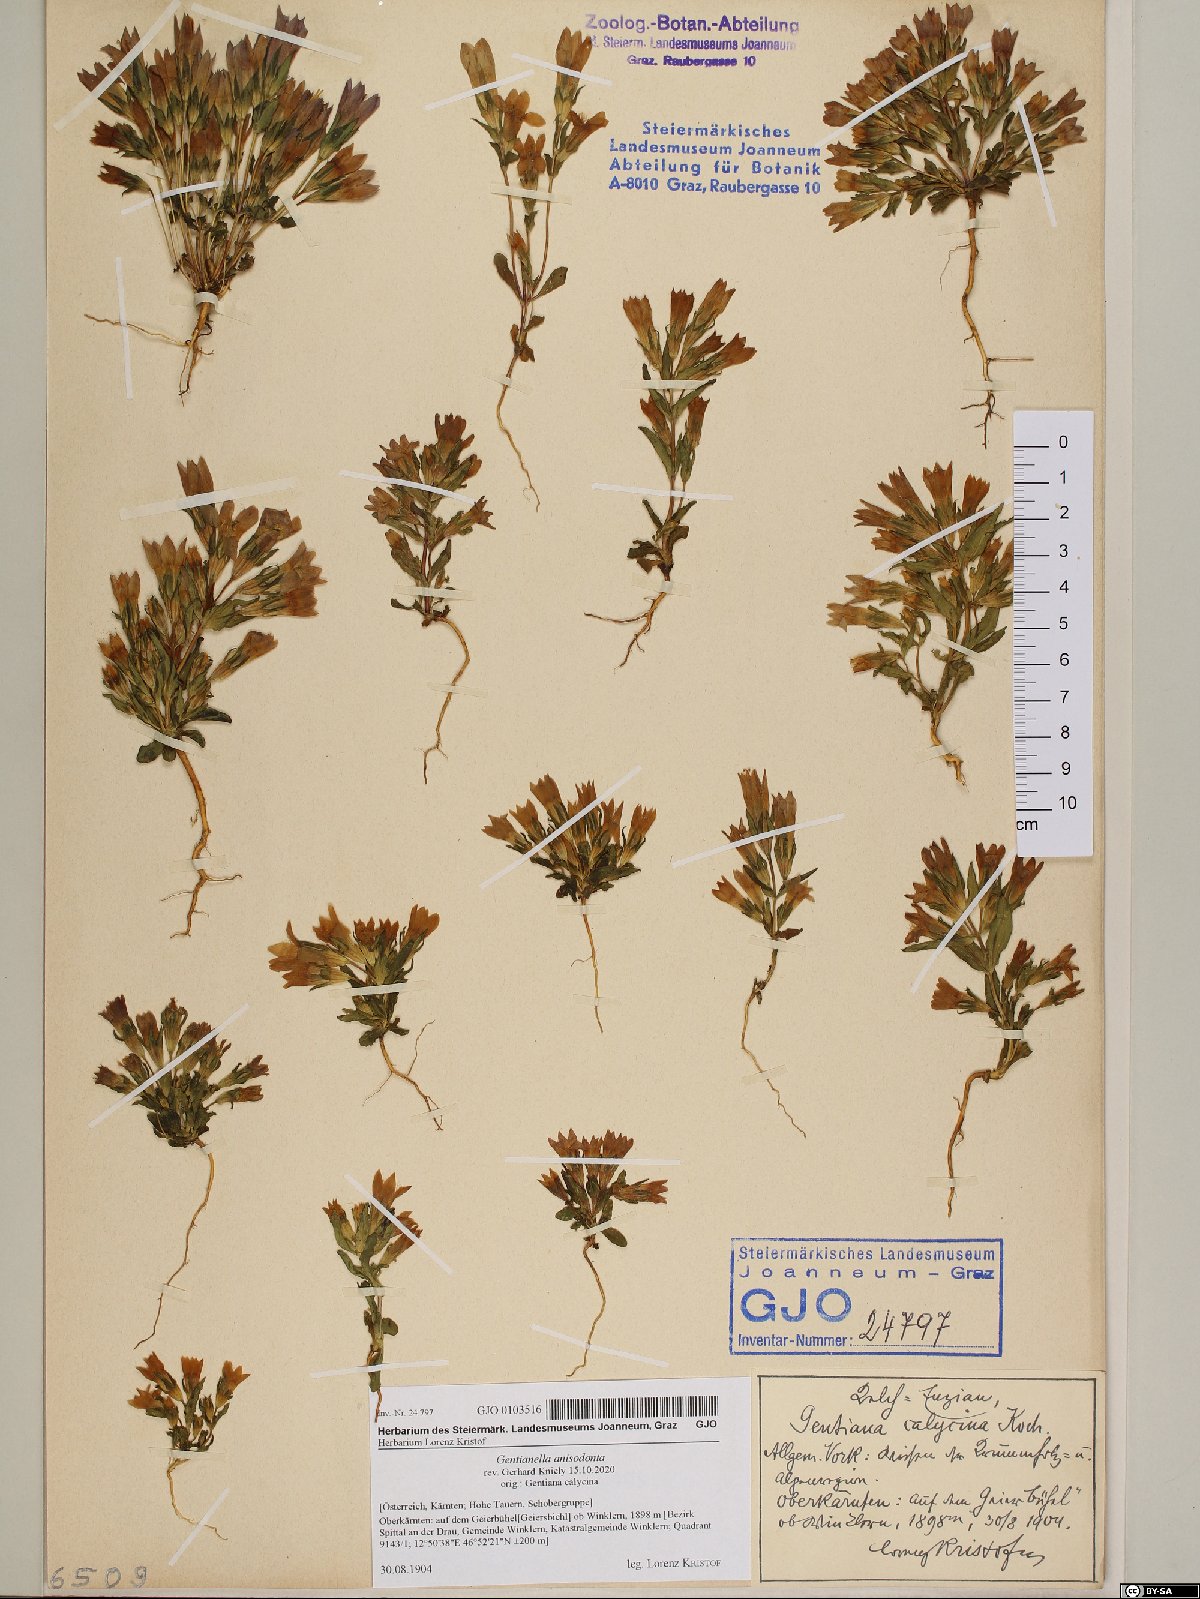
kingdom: Plantae
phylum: Tracheophyta
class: Magnoliopsida
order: Gentianales
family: Gentianaceae
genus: Gentianella
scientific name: Gentianella anisodonta
